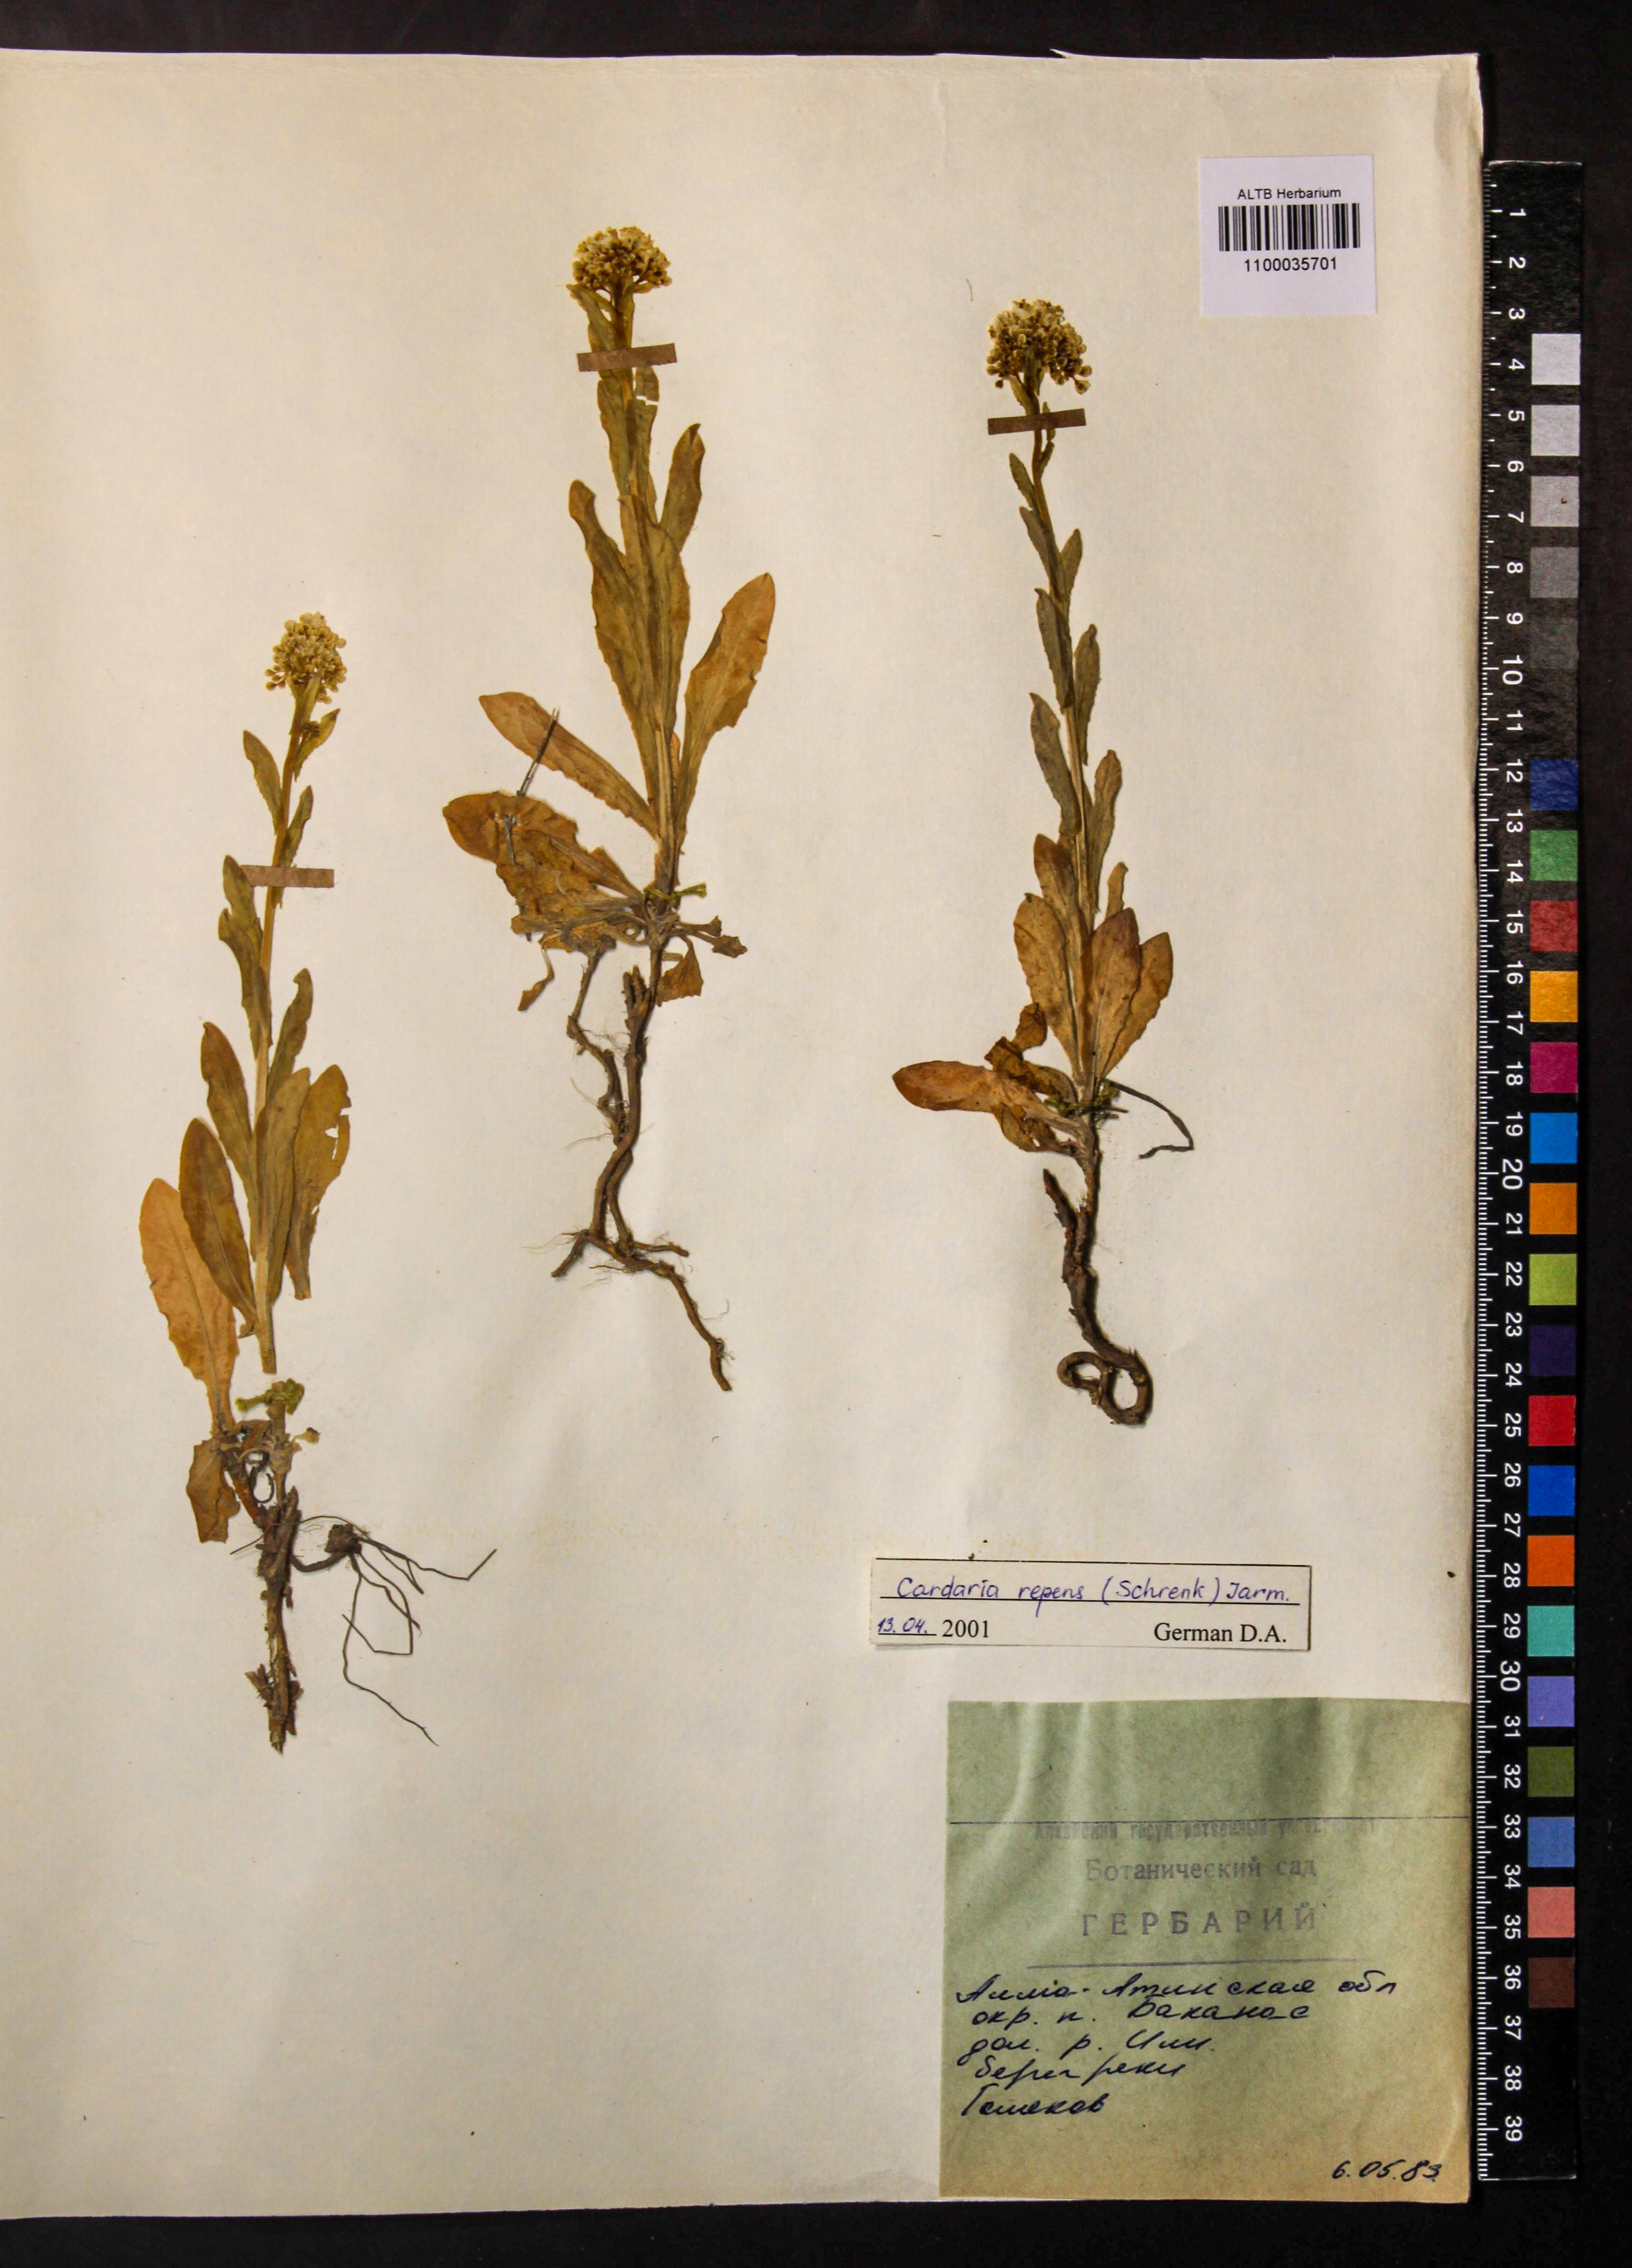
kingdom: Plantae
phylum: Tracheophyta
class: Magnoliopsida
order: Brassicales
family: Brassicaceae
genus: Lepidium
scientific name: Lepidium chalepense
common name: Orbicular whitetop
